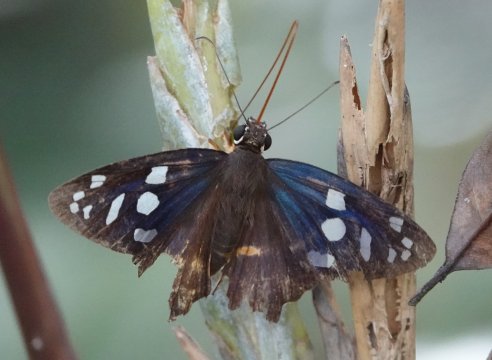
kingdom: Animalia
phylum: Arthropoda
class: Insecta
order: Lepidoptera
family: Hesperiidae
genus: Phareas
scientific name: Phareas burnsi
